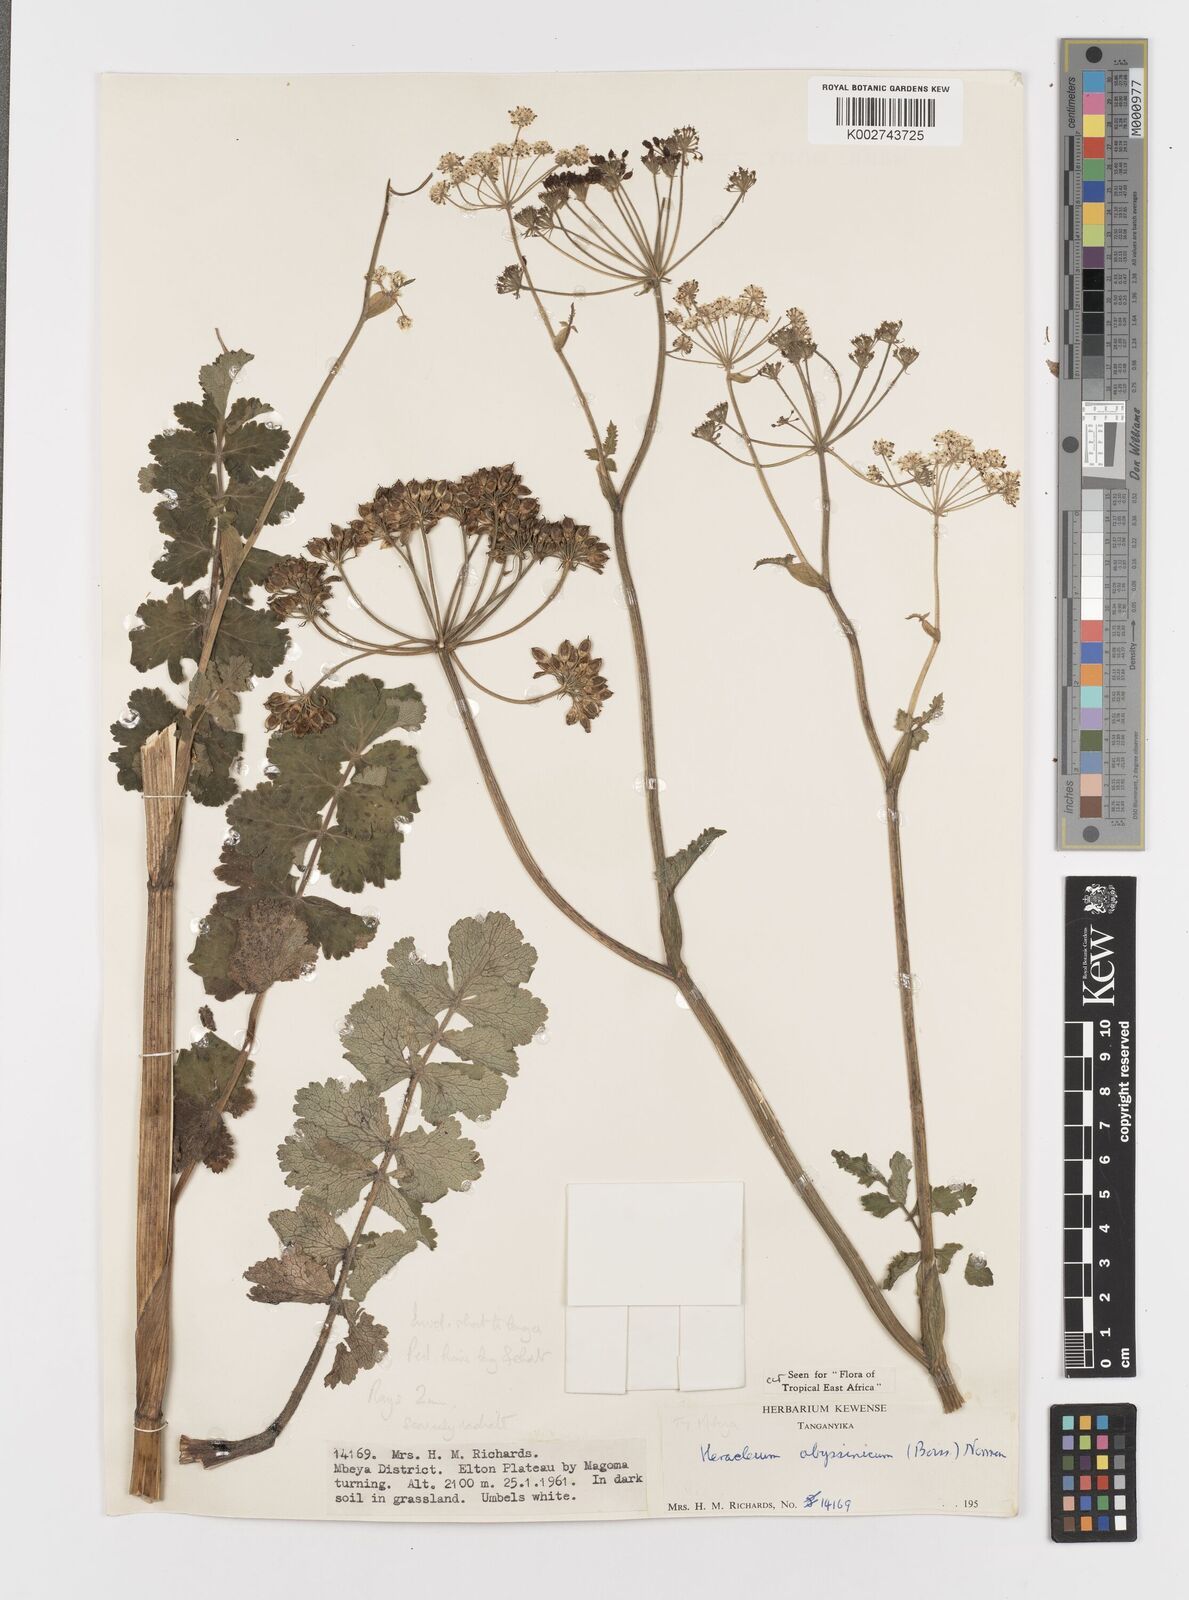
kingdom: Plantae
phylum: Tracheophyta
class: Magnoliopsida
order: Apiales
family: Apiaceae
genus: Heracleum
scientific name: Heracleum abyssinicum
